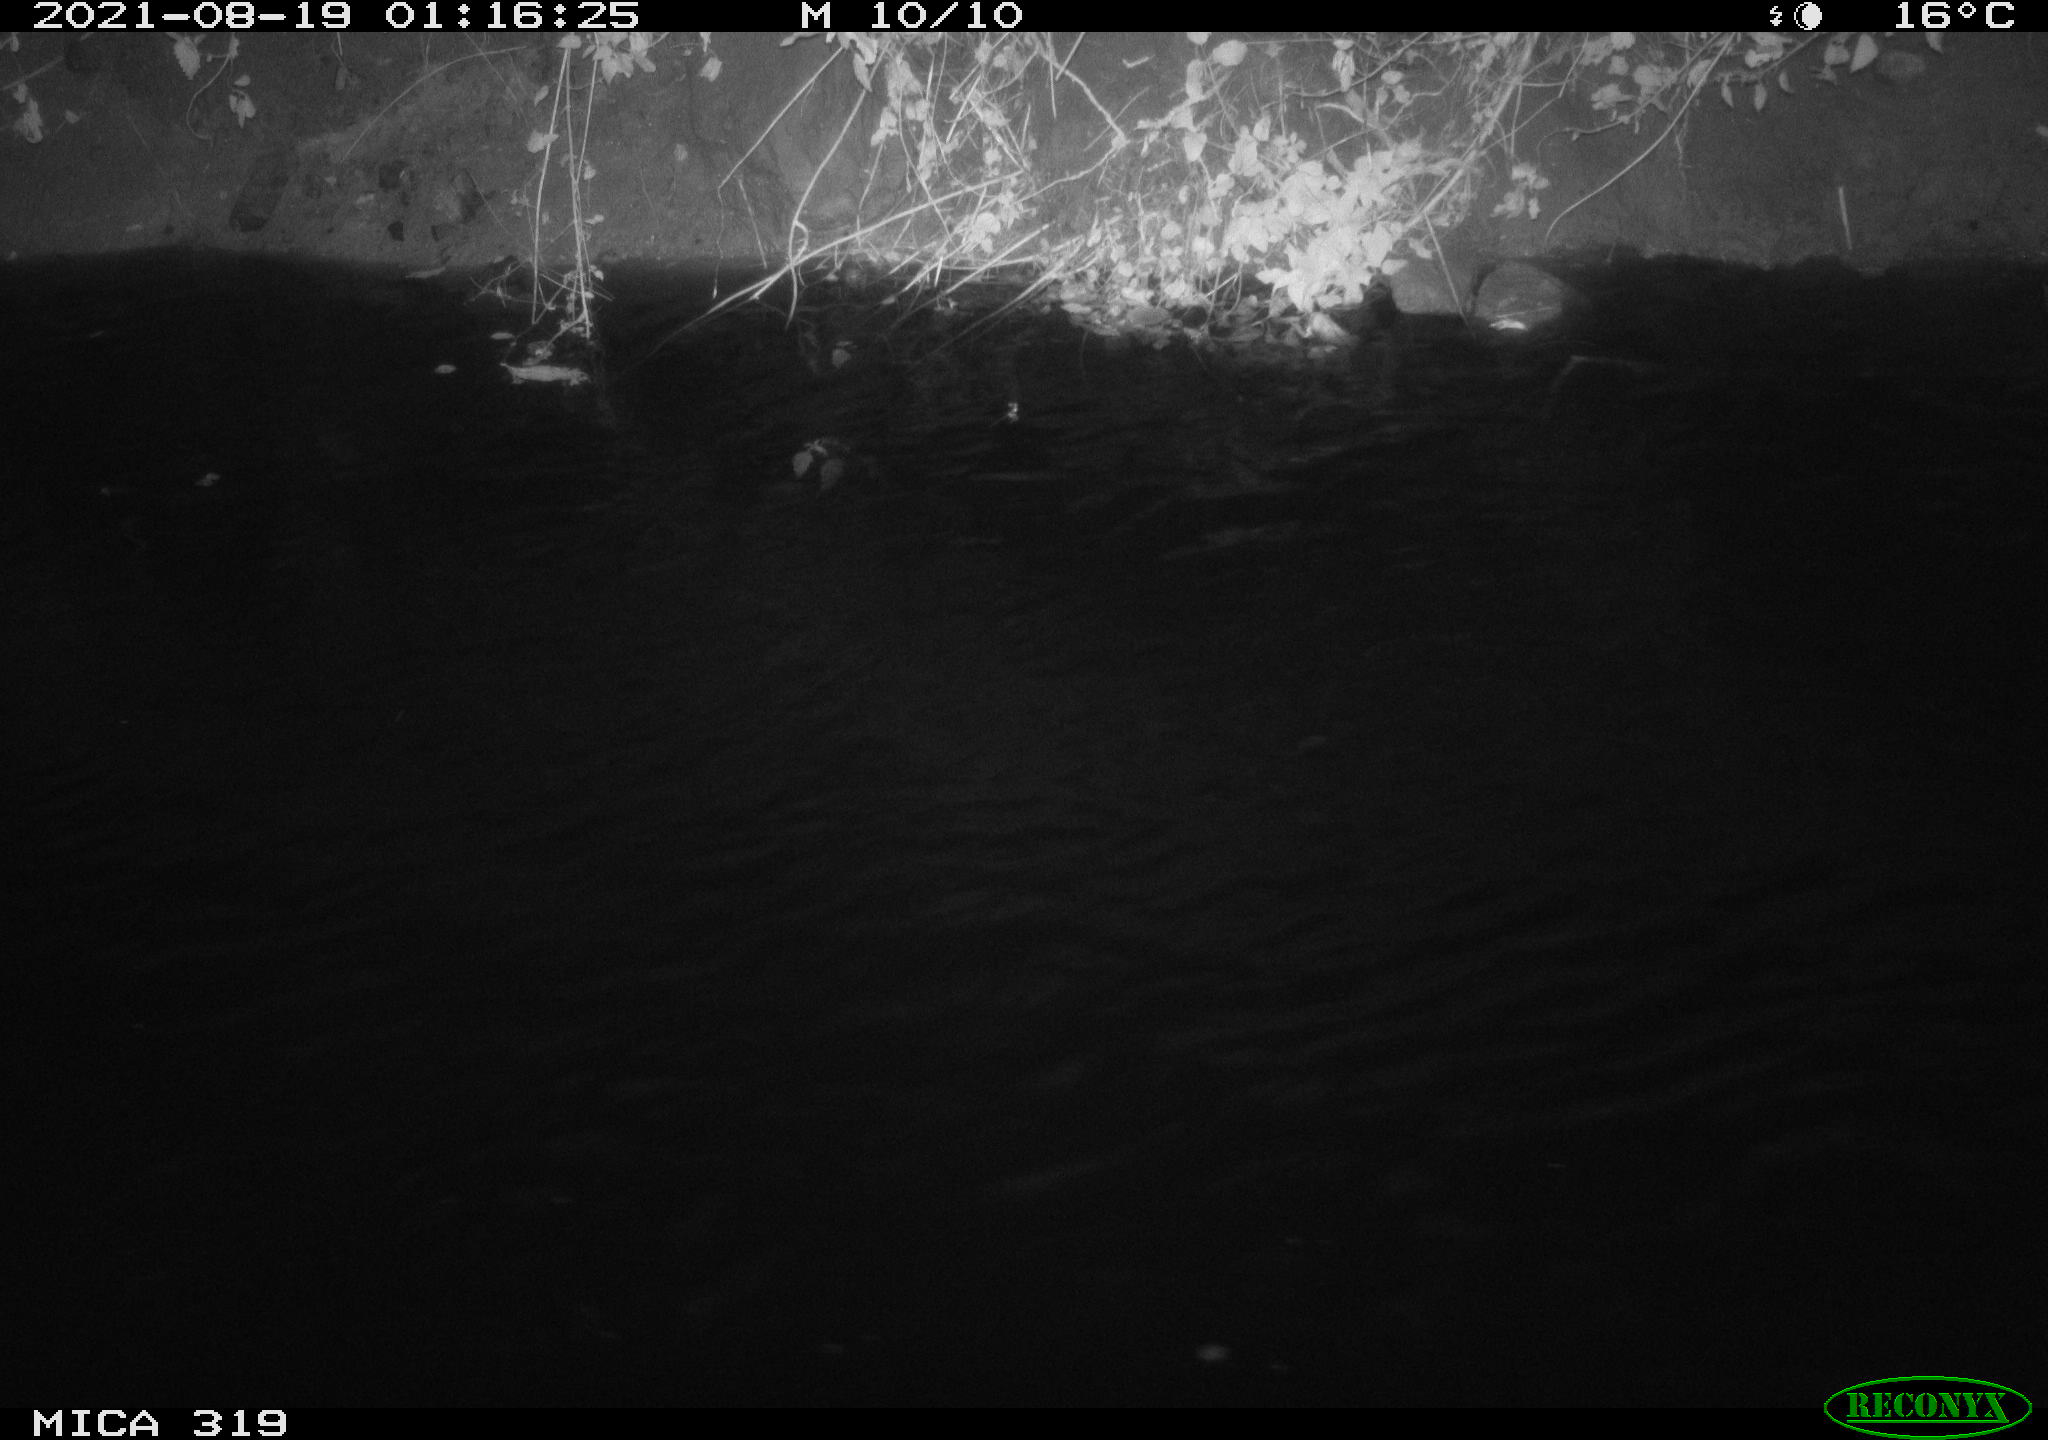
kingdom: Animalia
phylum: Chordata
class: Aves
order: Anseriformes
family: Anatidae
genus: Anas
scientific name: Anas platyrhynchos
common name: Mallard
